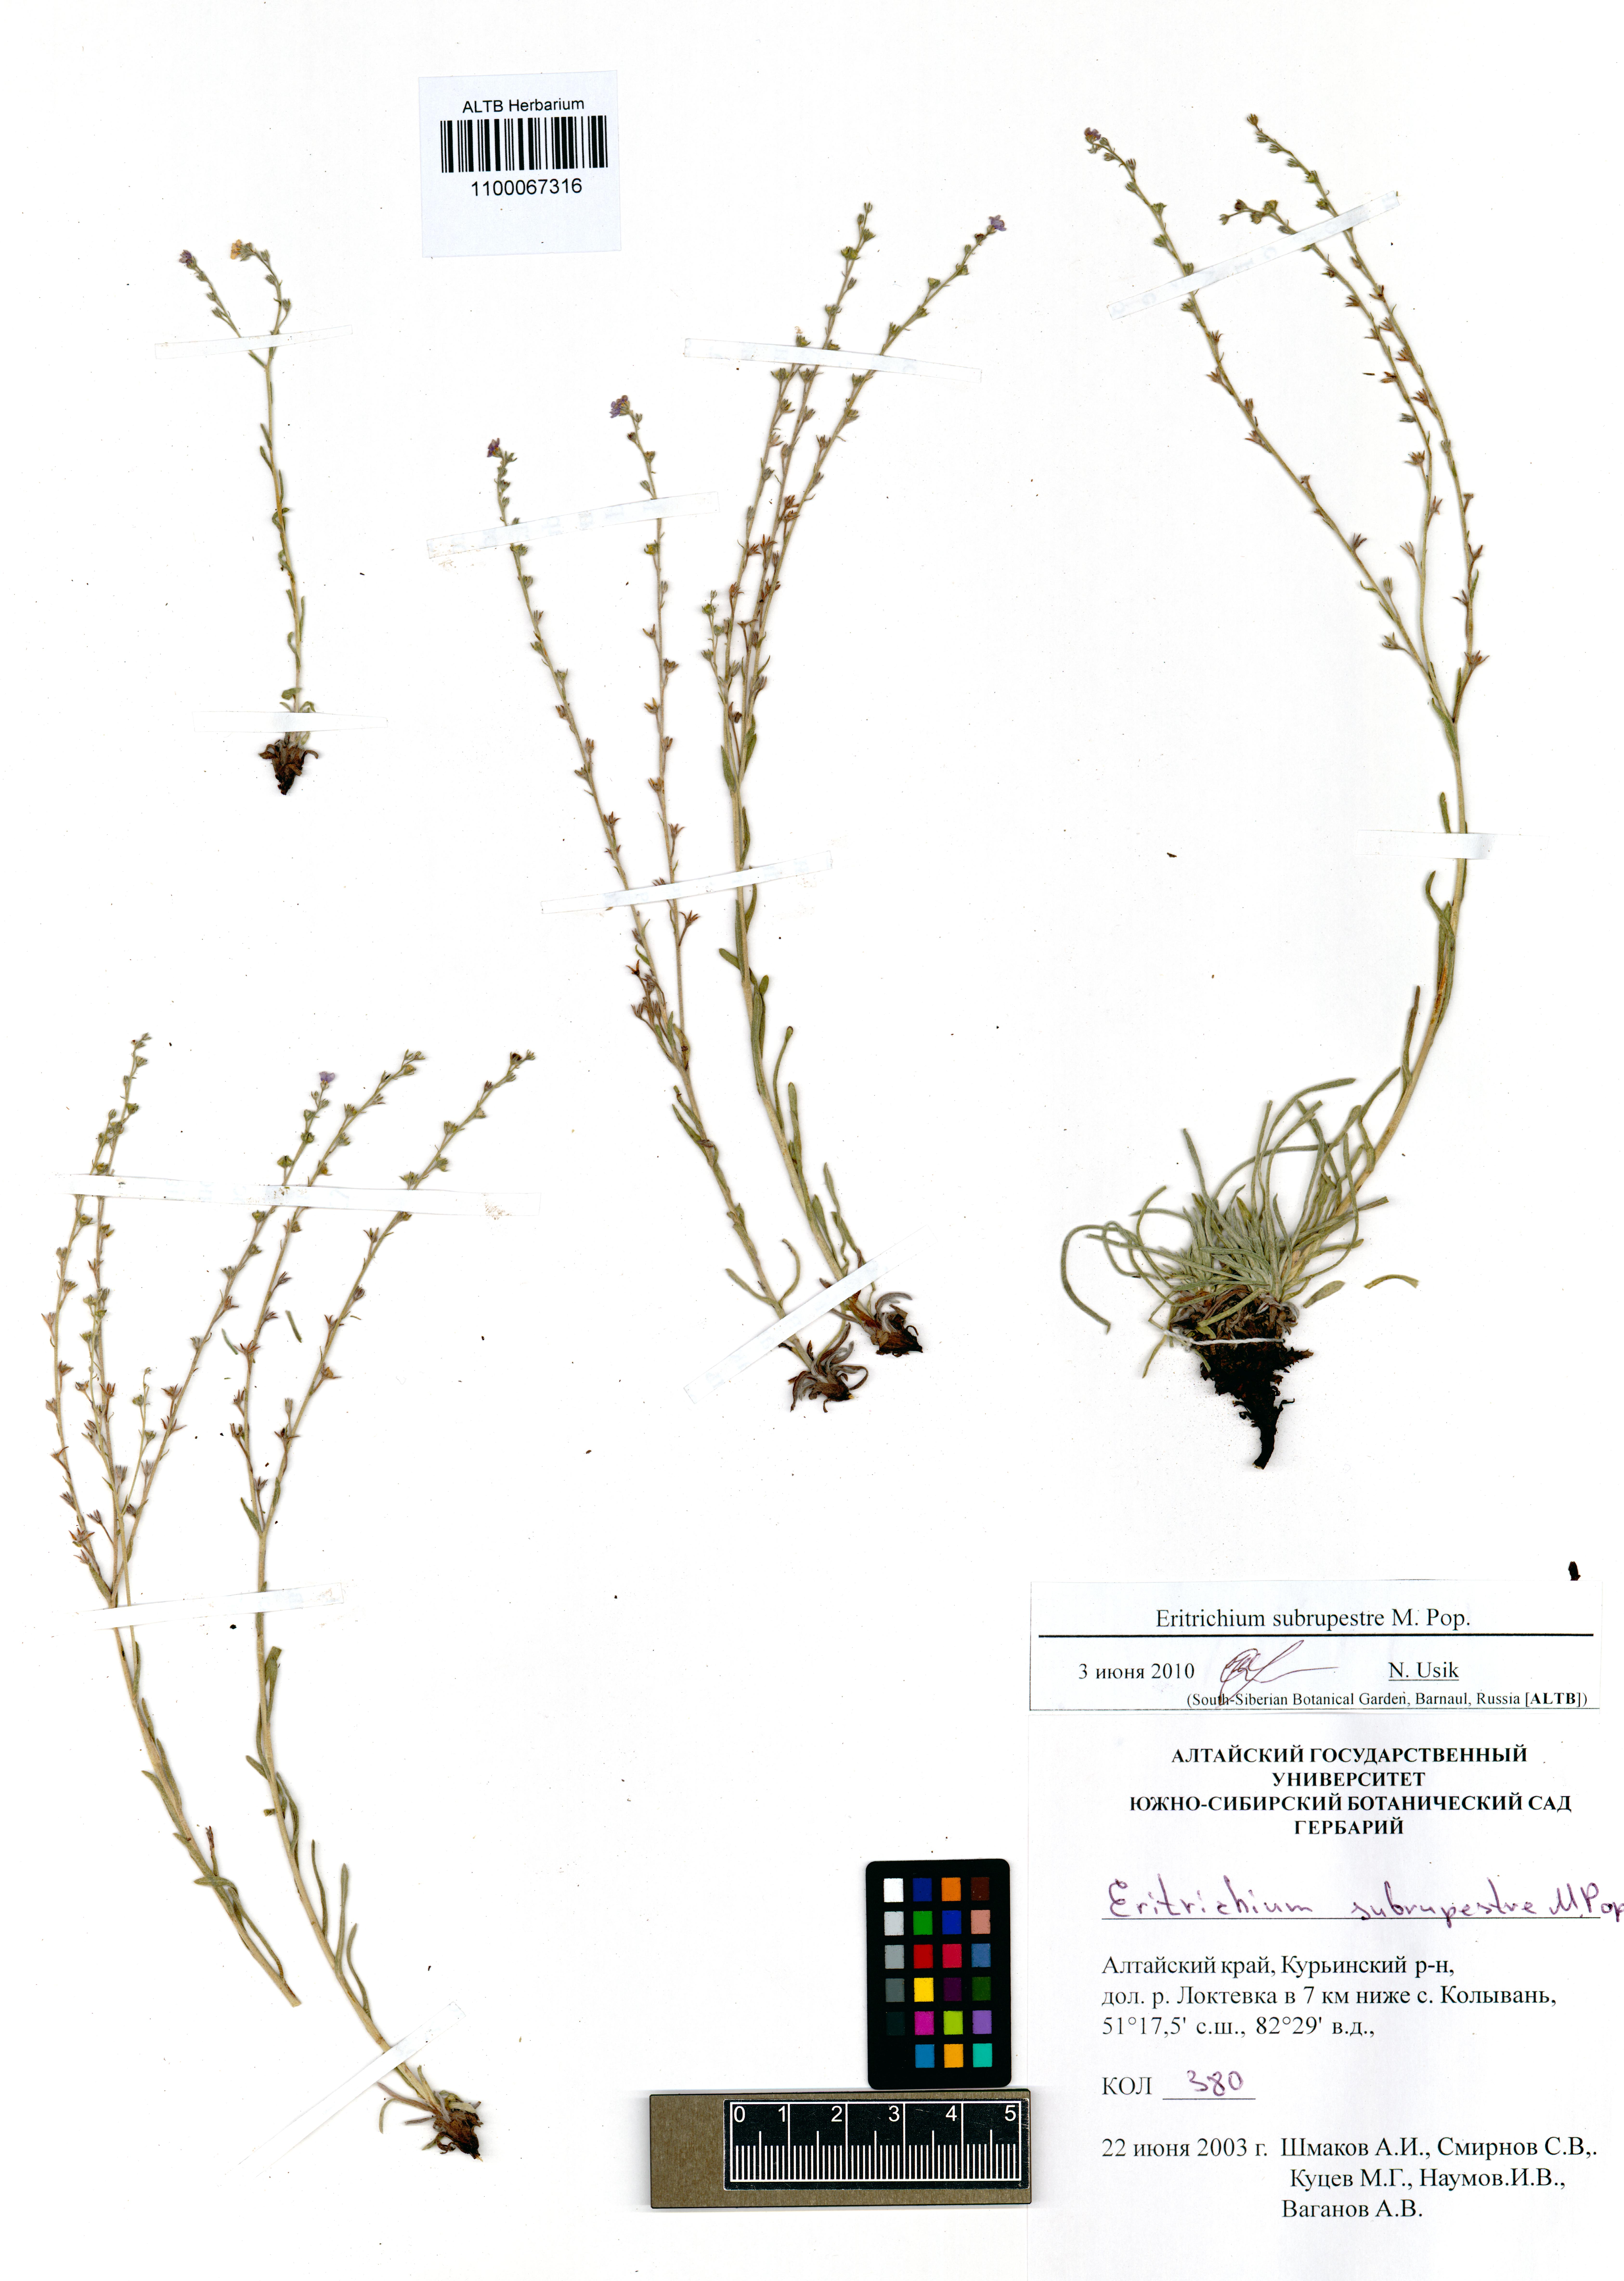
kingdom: Plantae
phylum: Tracheophyta
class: Magnoliopsida
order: Boraginales
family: Boraginaceae
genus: Eritrichium
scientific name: Eritrichium pauciflorum
